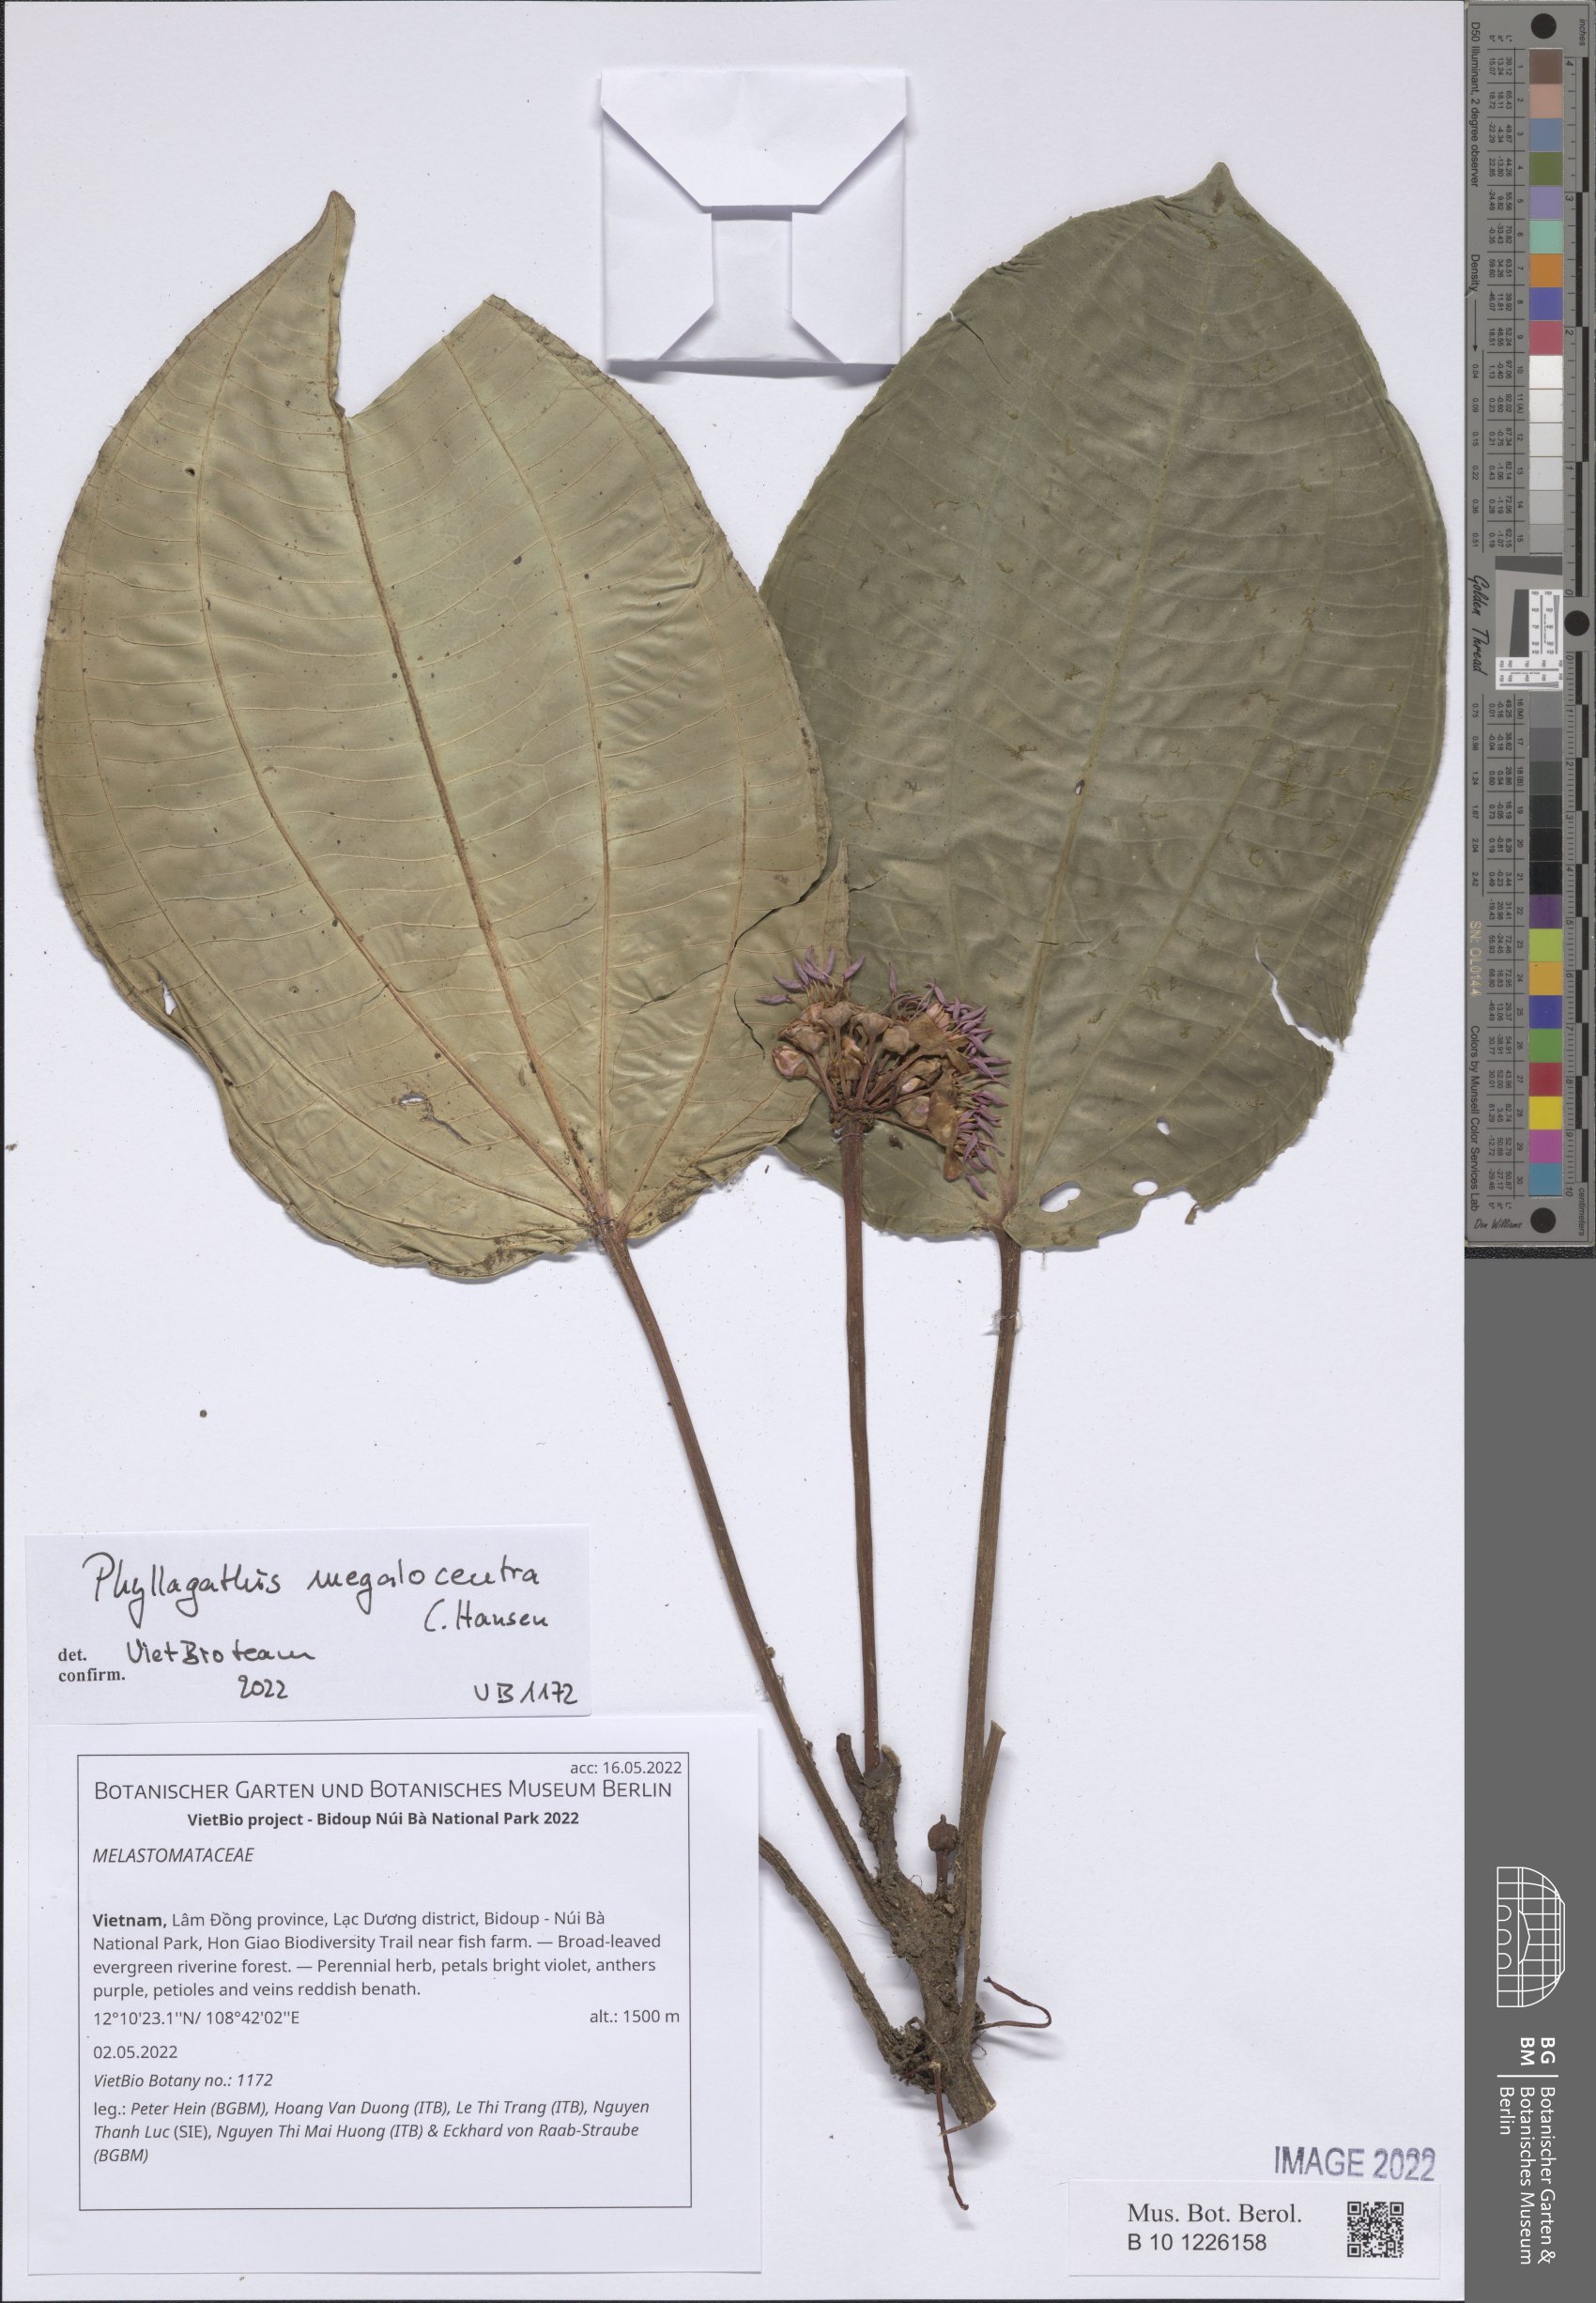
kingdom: Plantae
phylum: Tracheophyta
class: Magnoliopsida
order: Myrtales
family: Melastomataceae
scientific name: Melastomataceae
